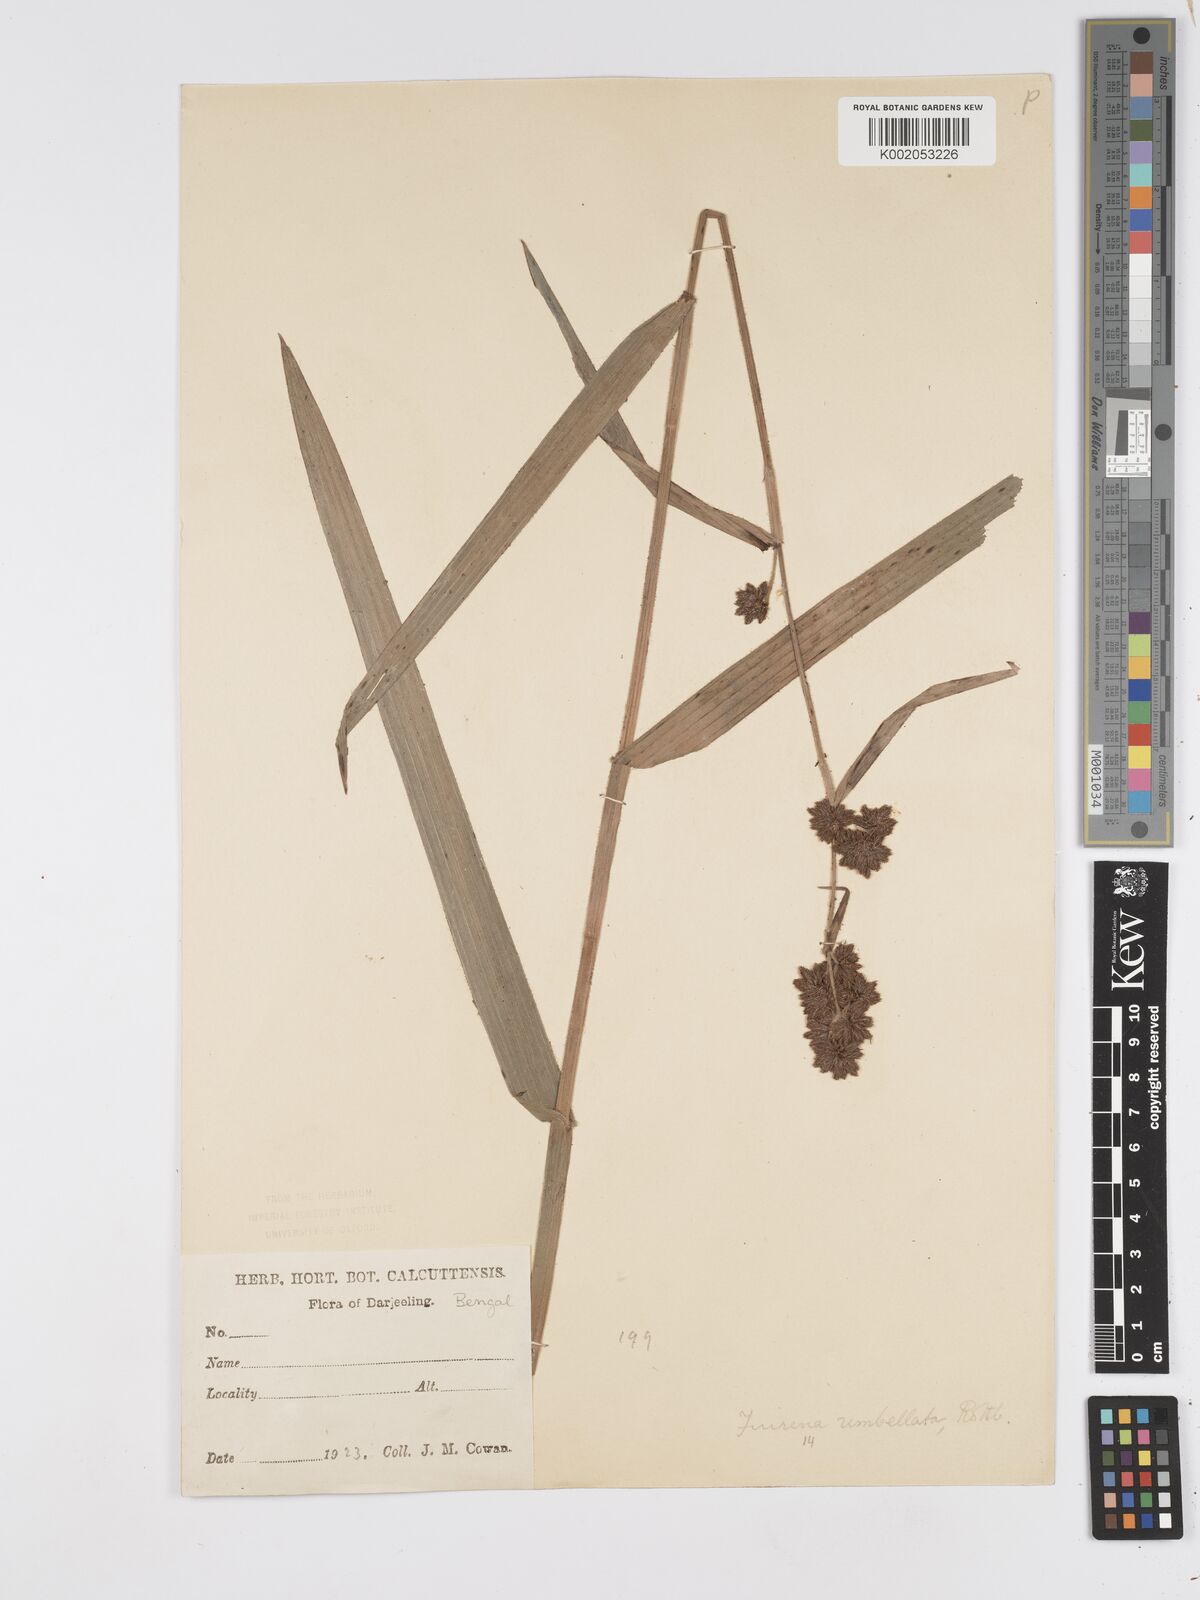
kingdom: Plantae
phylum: Tracheophyta
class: Liliopsida
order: Poales
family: Cyperaceae
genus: Fuirena
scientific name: Fuirena umbellata
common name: Yefen
